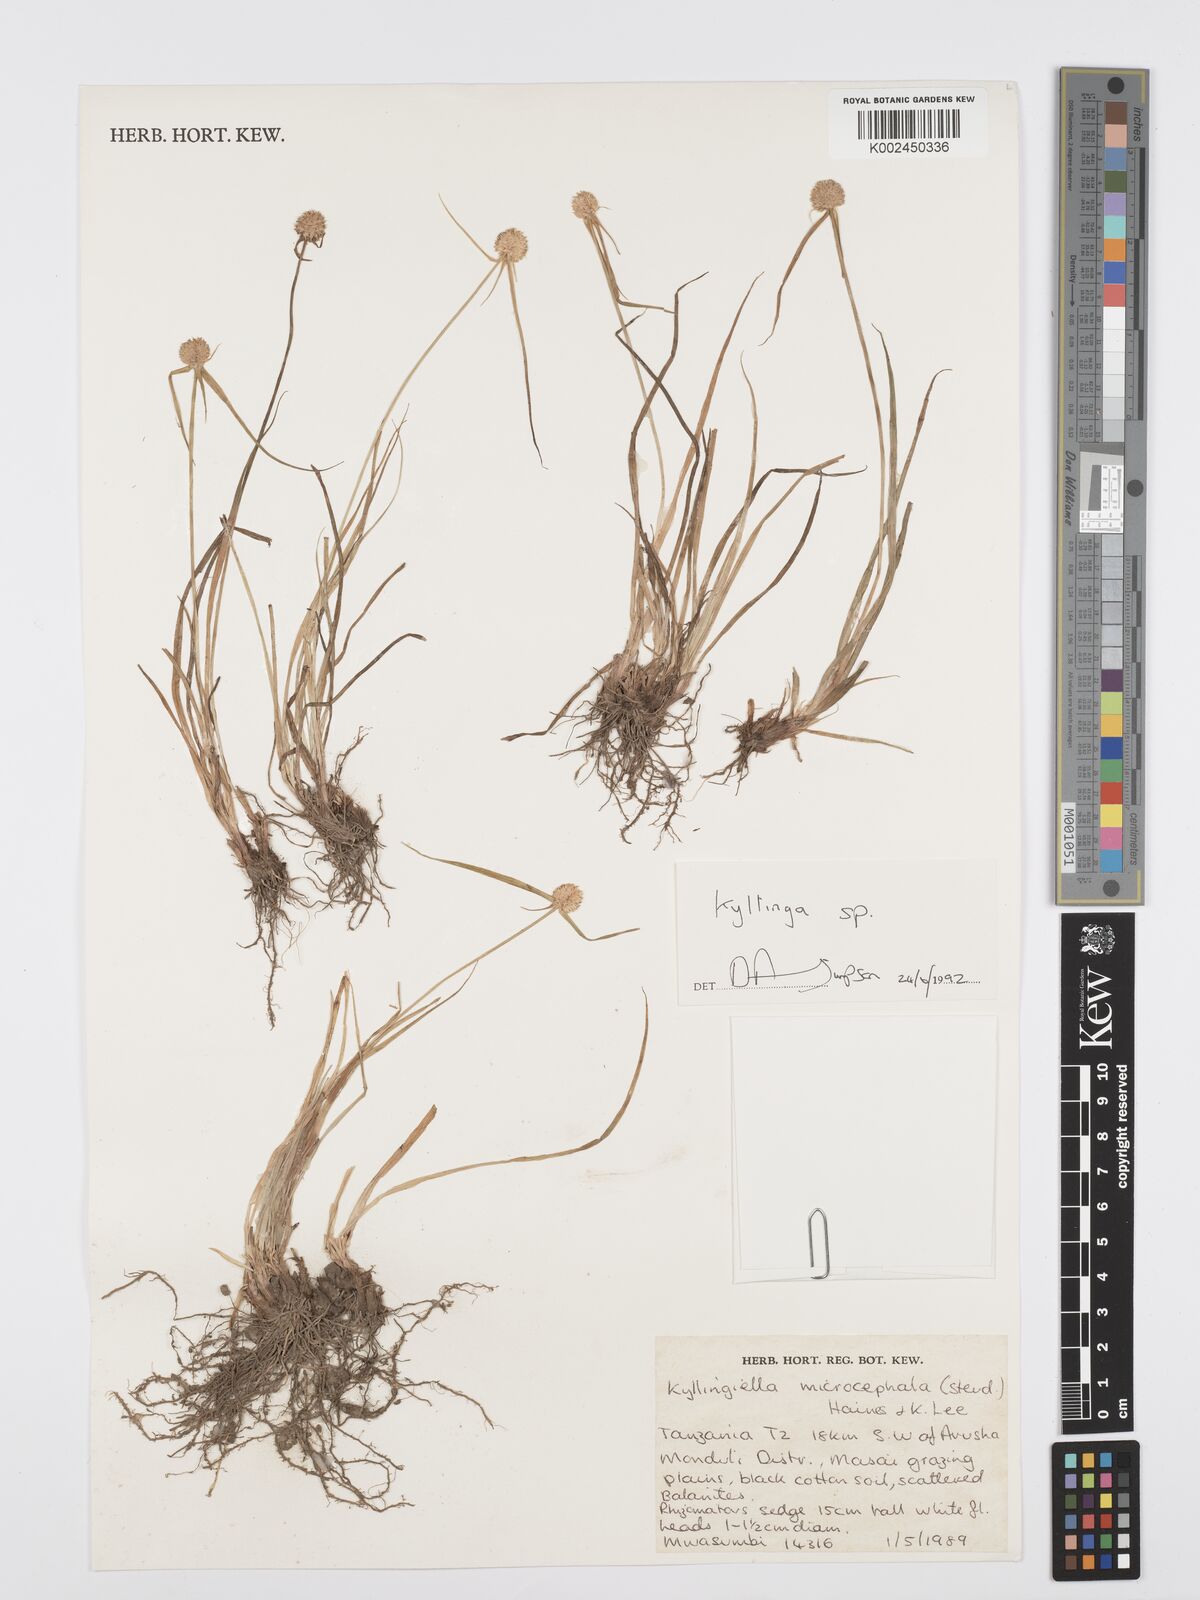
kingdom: Plantae
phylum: Tracheophyta
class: Liliopsida
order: Poales
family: Cyperaceae
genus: Cyperus
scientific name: Cyperus
